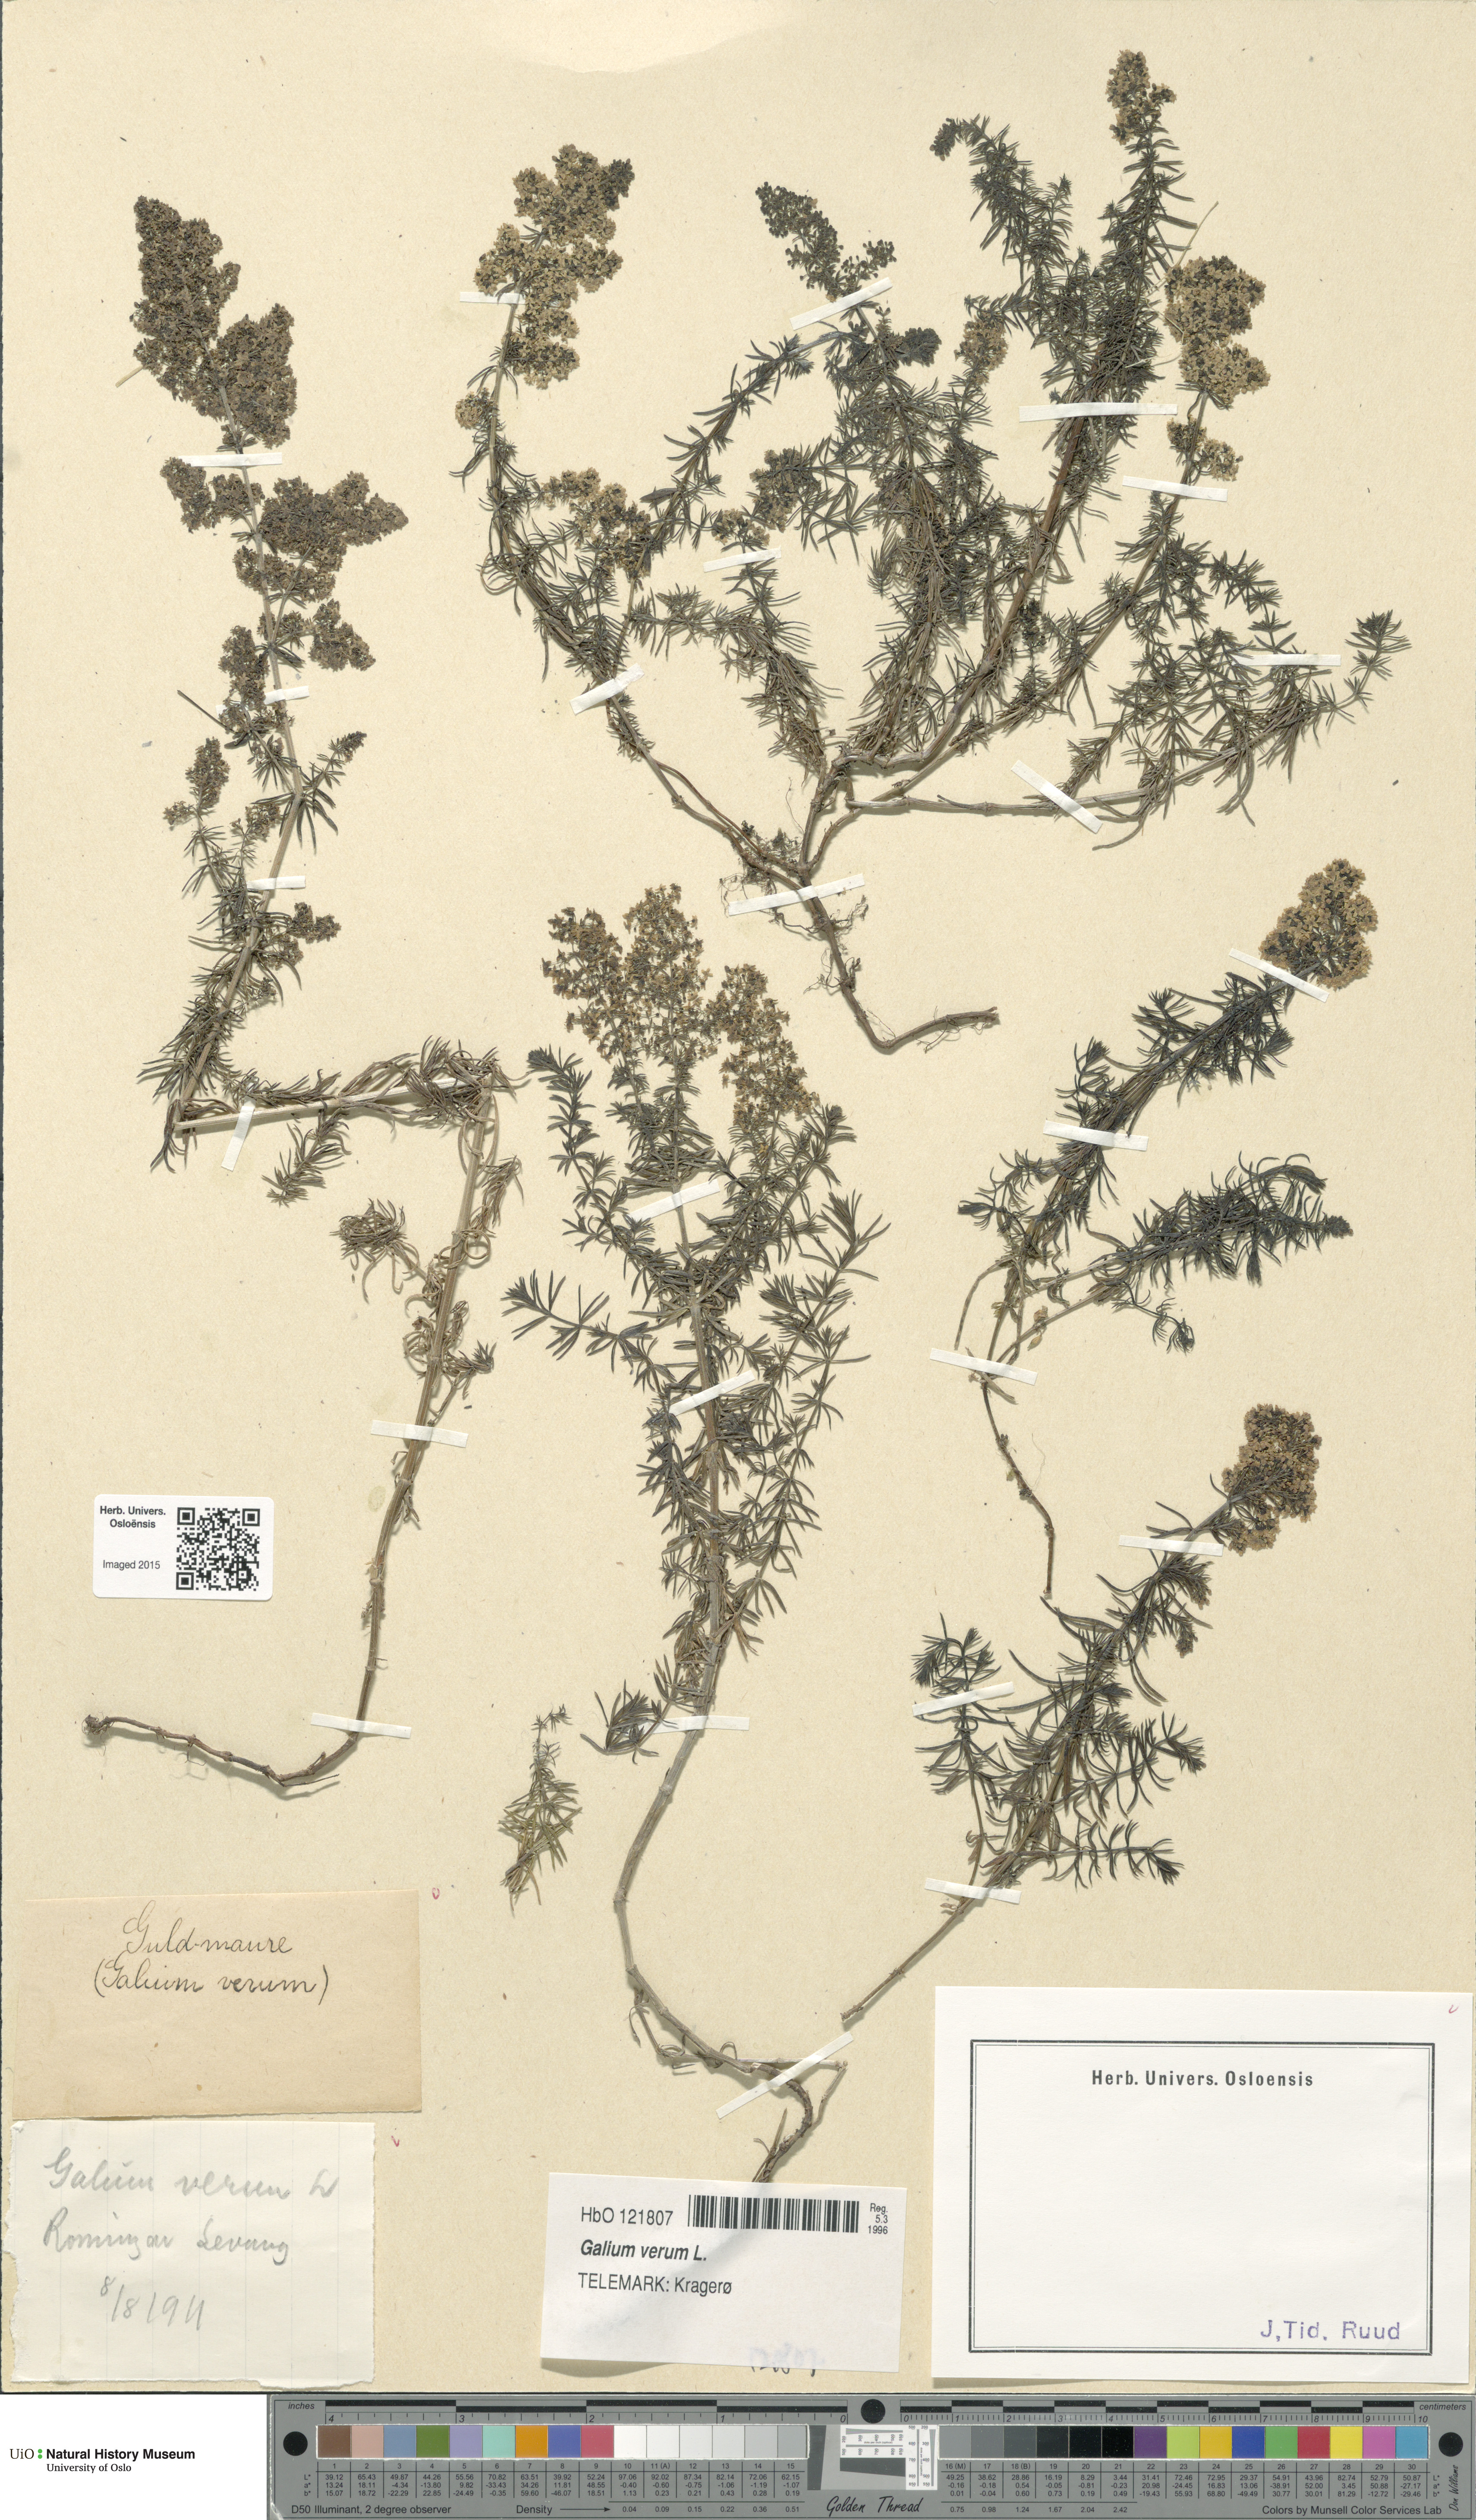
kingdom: Plantae
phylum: Tracheophyta
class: Magnoliopsida
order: Gentianales
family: Rubiaceae
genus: Galium
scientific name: Galium verum
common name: Lady's bedstraw
